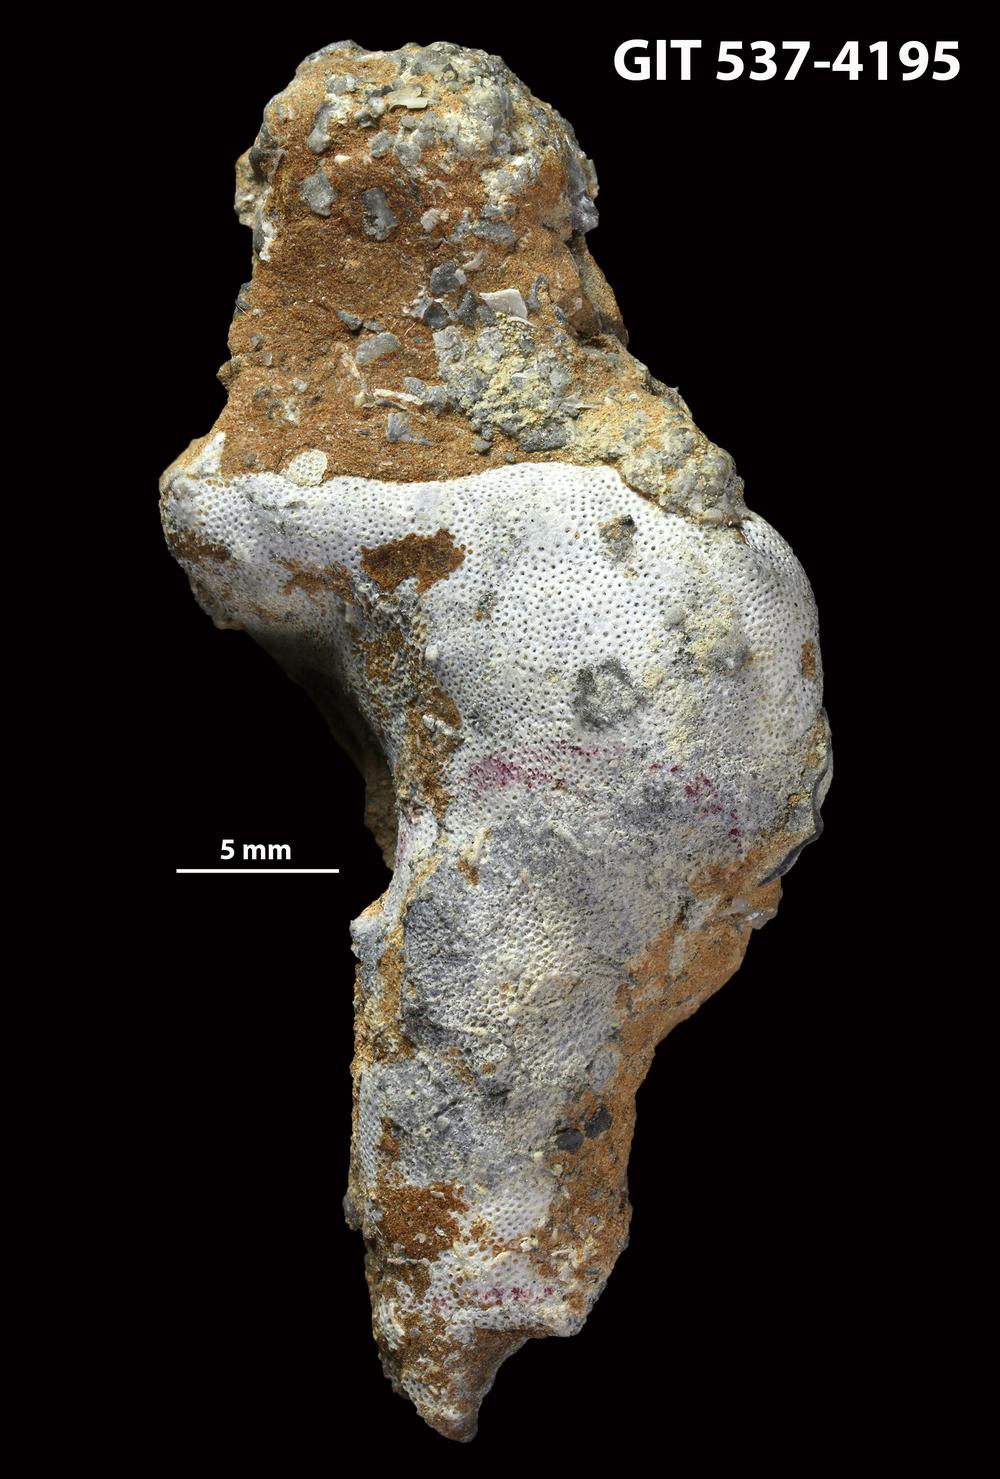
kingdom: Animalia
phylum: Bryozoa
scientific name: Bryozoa
